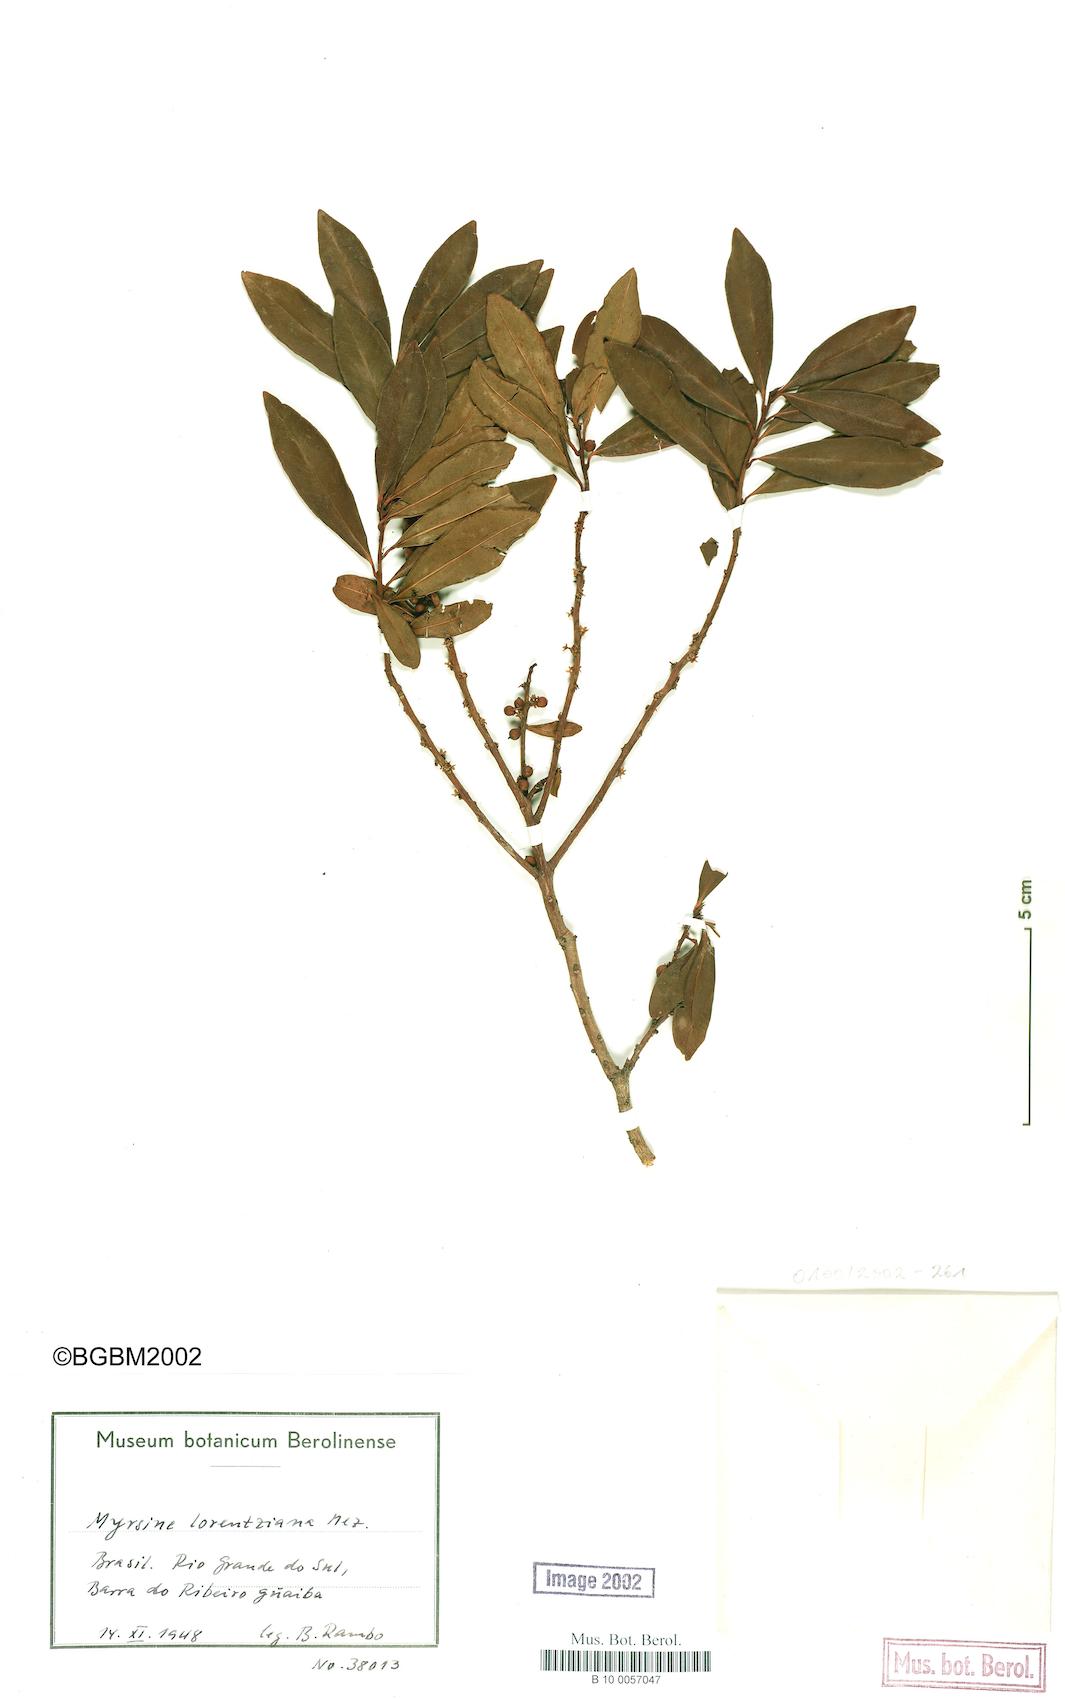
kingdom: Plantae
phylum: Tracheophyta
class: Magnoliopsida
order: Ericales
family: Primulaceae
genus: Myrsine
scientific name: Myrsine lorentziana
